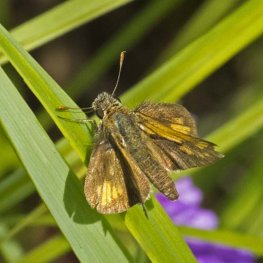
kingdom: Animalia
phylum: Arthropoda
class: Insecta
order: Lepidoptera
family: Hesperiidae
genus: Polites
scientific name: Polites coras
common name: Peck's Skipper
